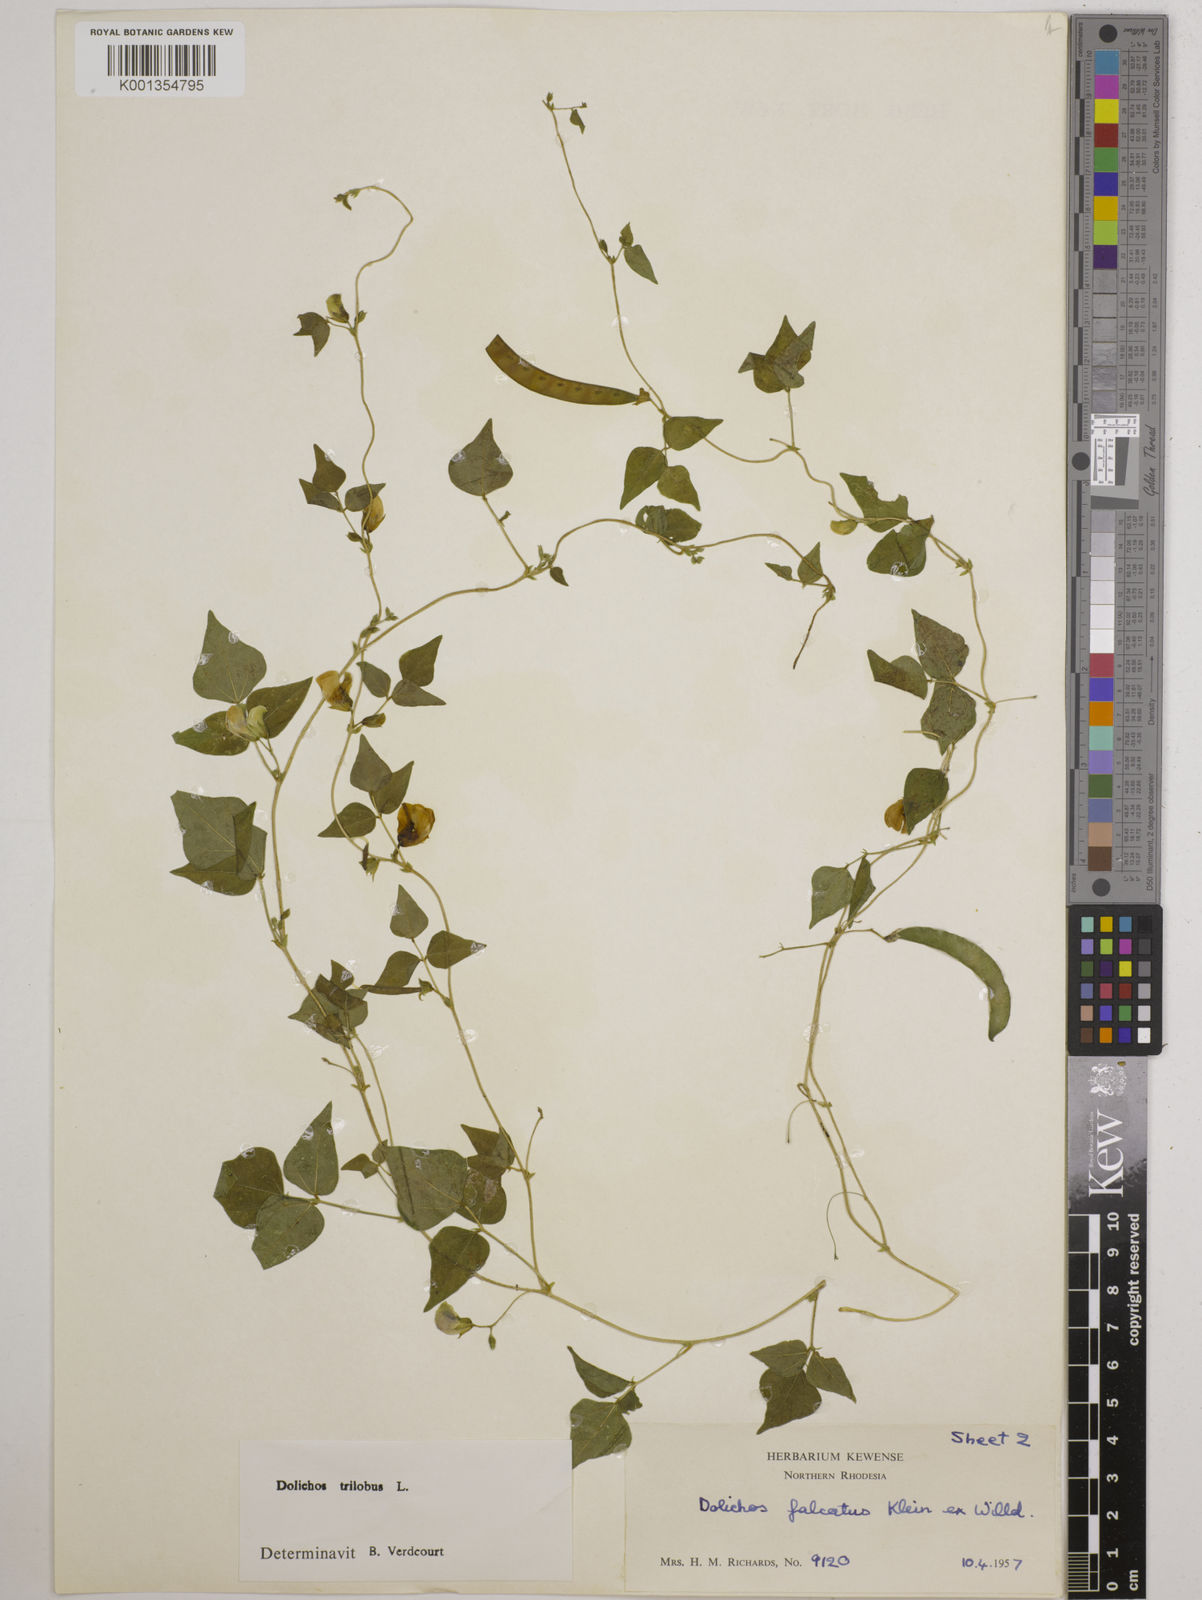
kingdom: Plantae
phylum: Tracheophyta
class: Magnoliopsida
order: Fabales
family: Fabaceae
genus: Dolichos
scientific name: Dolichos
